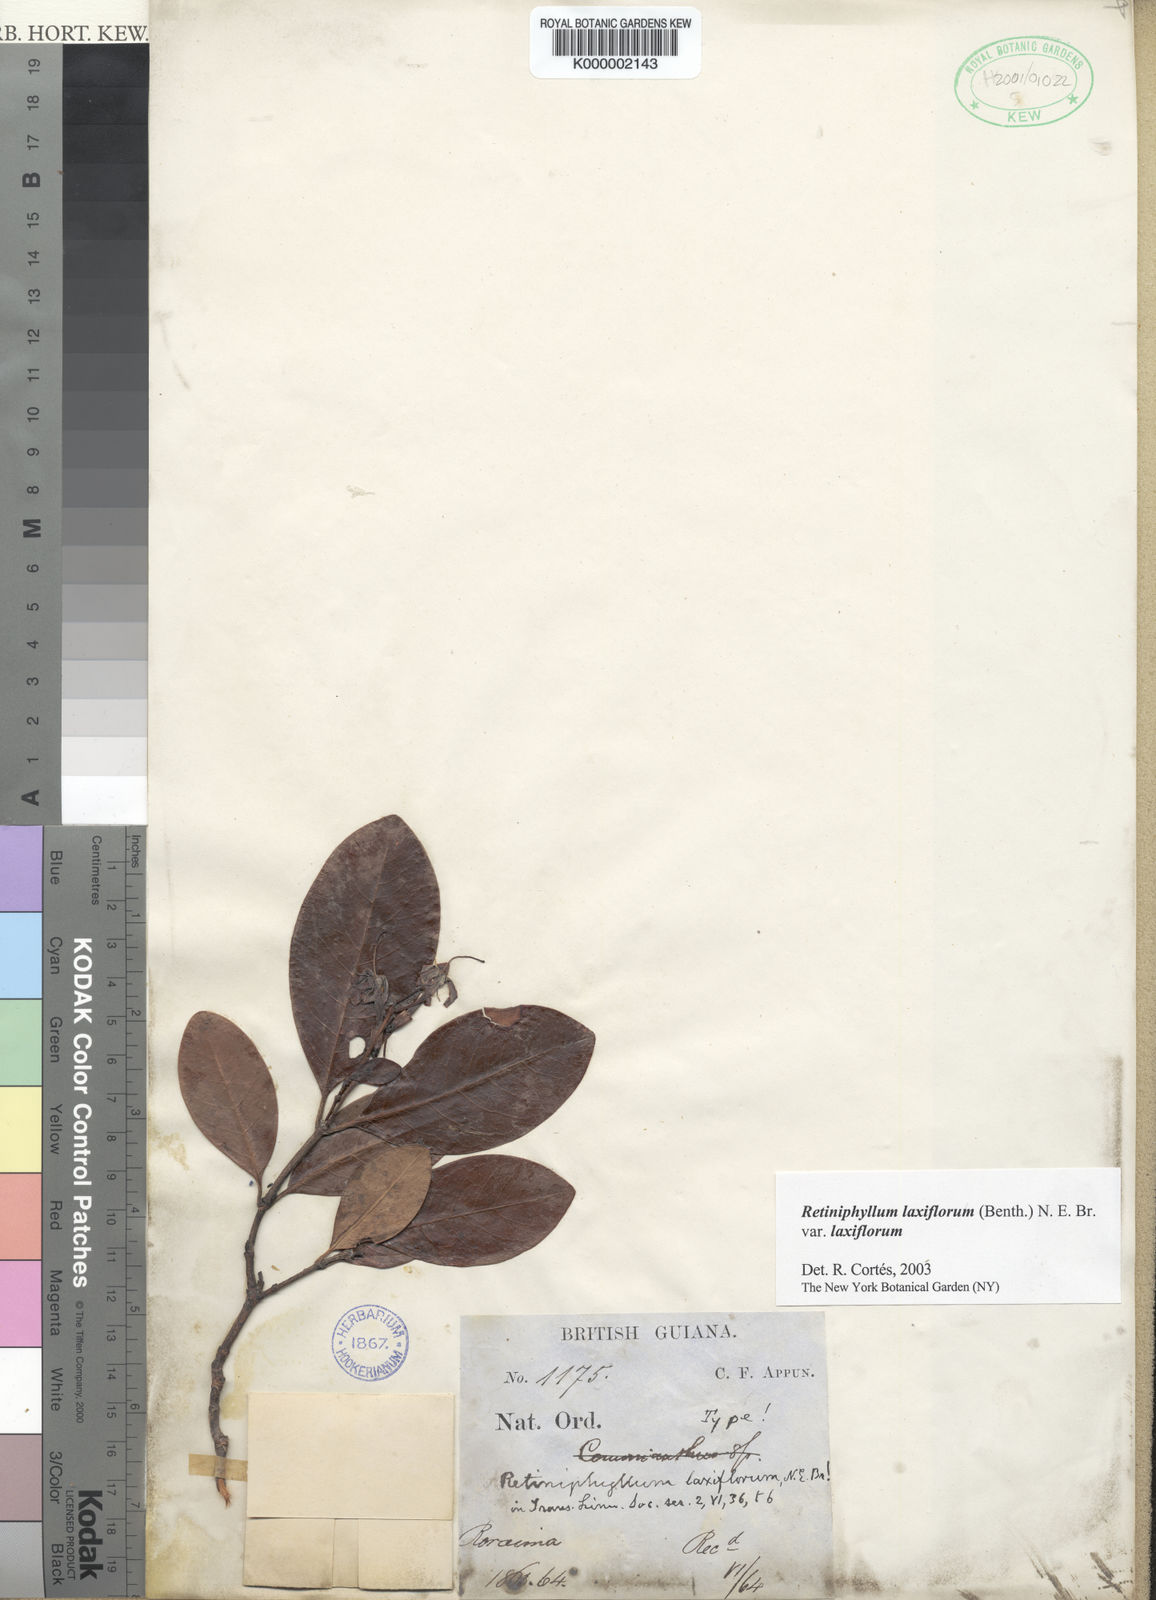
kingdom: Plantae
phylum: Tracheophyta
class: Magnoliopsida
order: Gentianales
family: Rubiaceae
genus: Retiniphyllum
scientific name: Retiniphyllum laxiflorum
